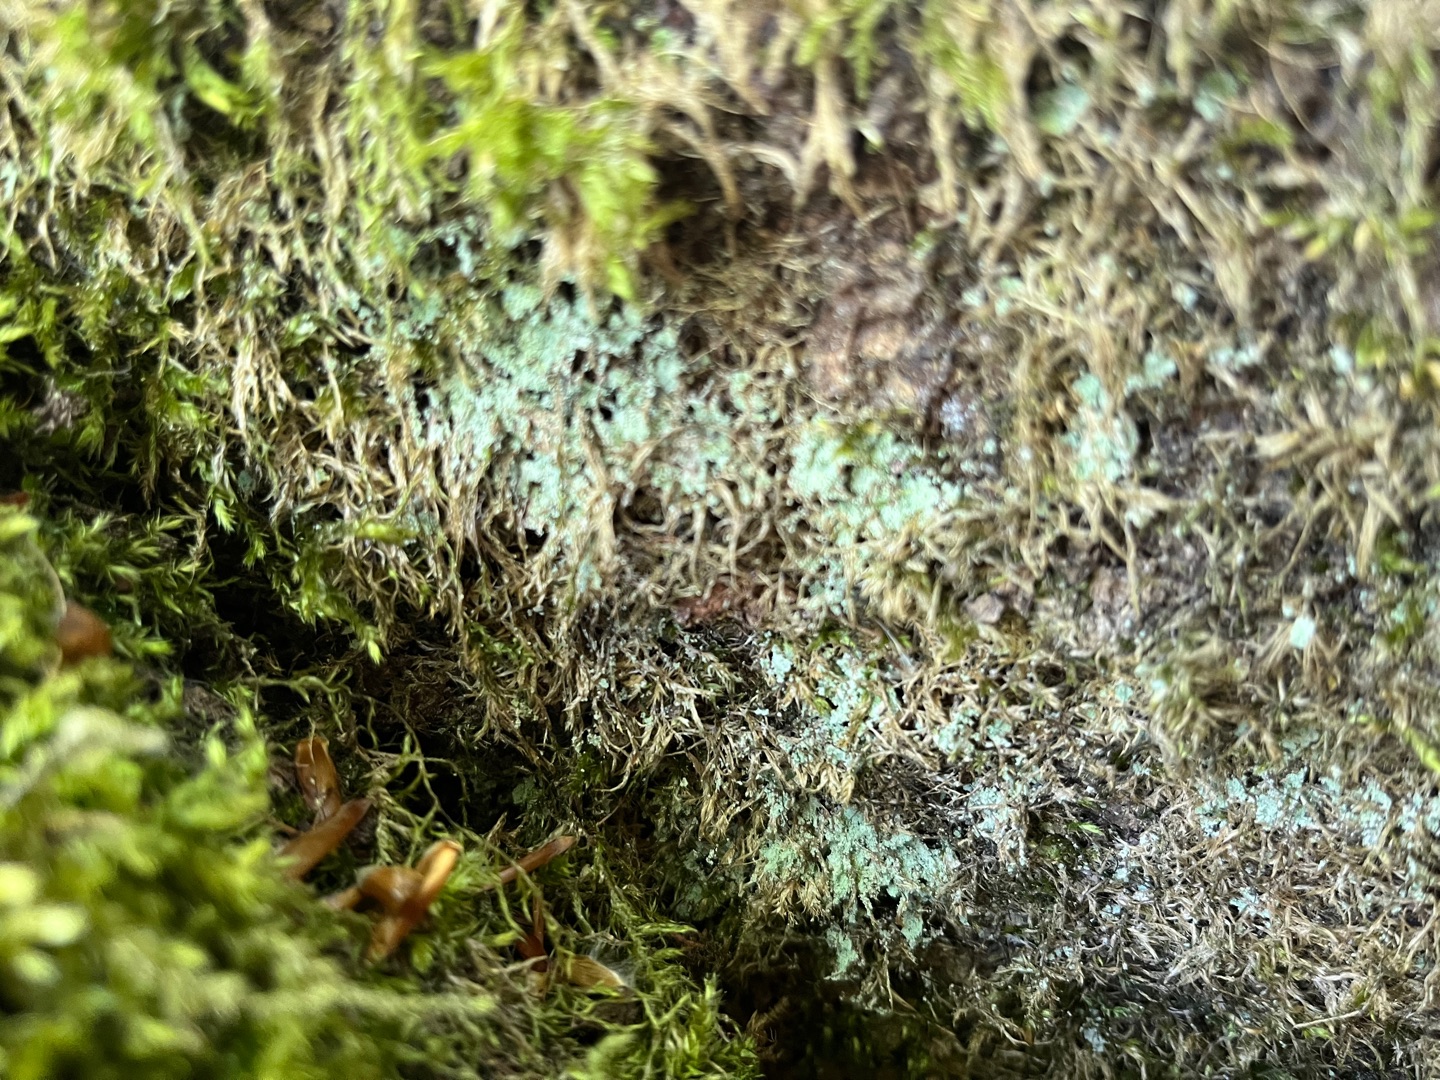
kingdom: Fungi
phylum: Ascomycota
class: Lecanoromycetes
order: Lecanorales
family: Stereocaulaceae
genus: Lepraria
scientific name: Lepraria
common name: Støvlav
